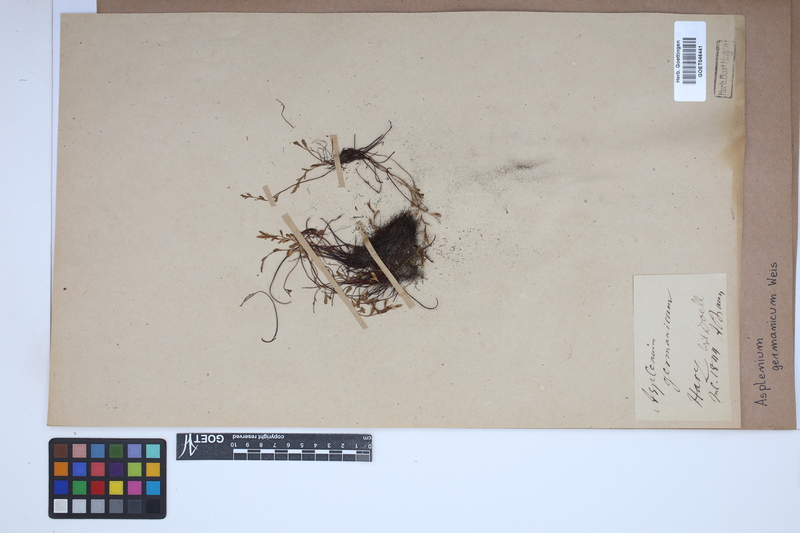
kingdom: Plantae
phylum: Tracheophyta
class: Polypodiopsida
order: Polypodiales
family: Aspleniaceae
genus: Asplenium
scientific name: Asplenium
